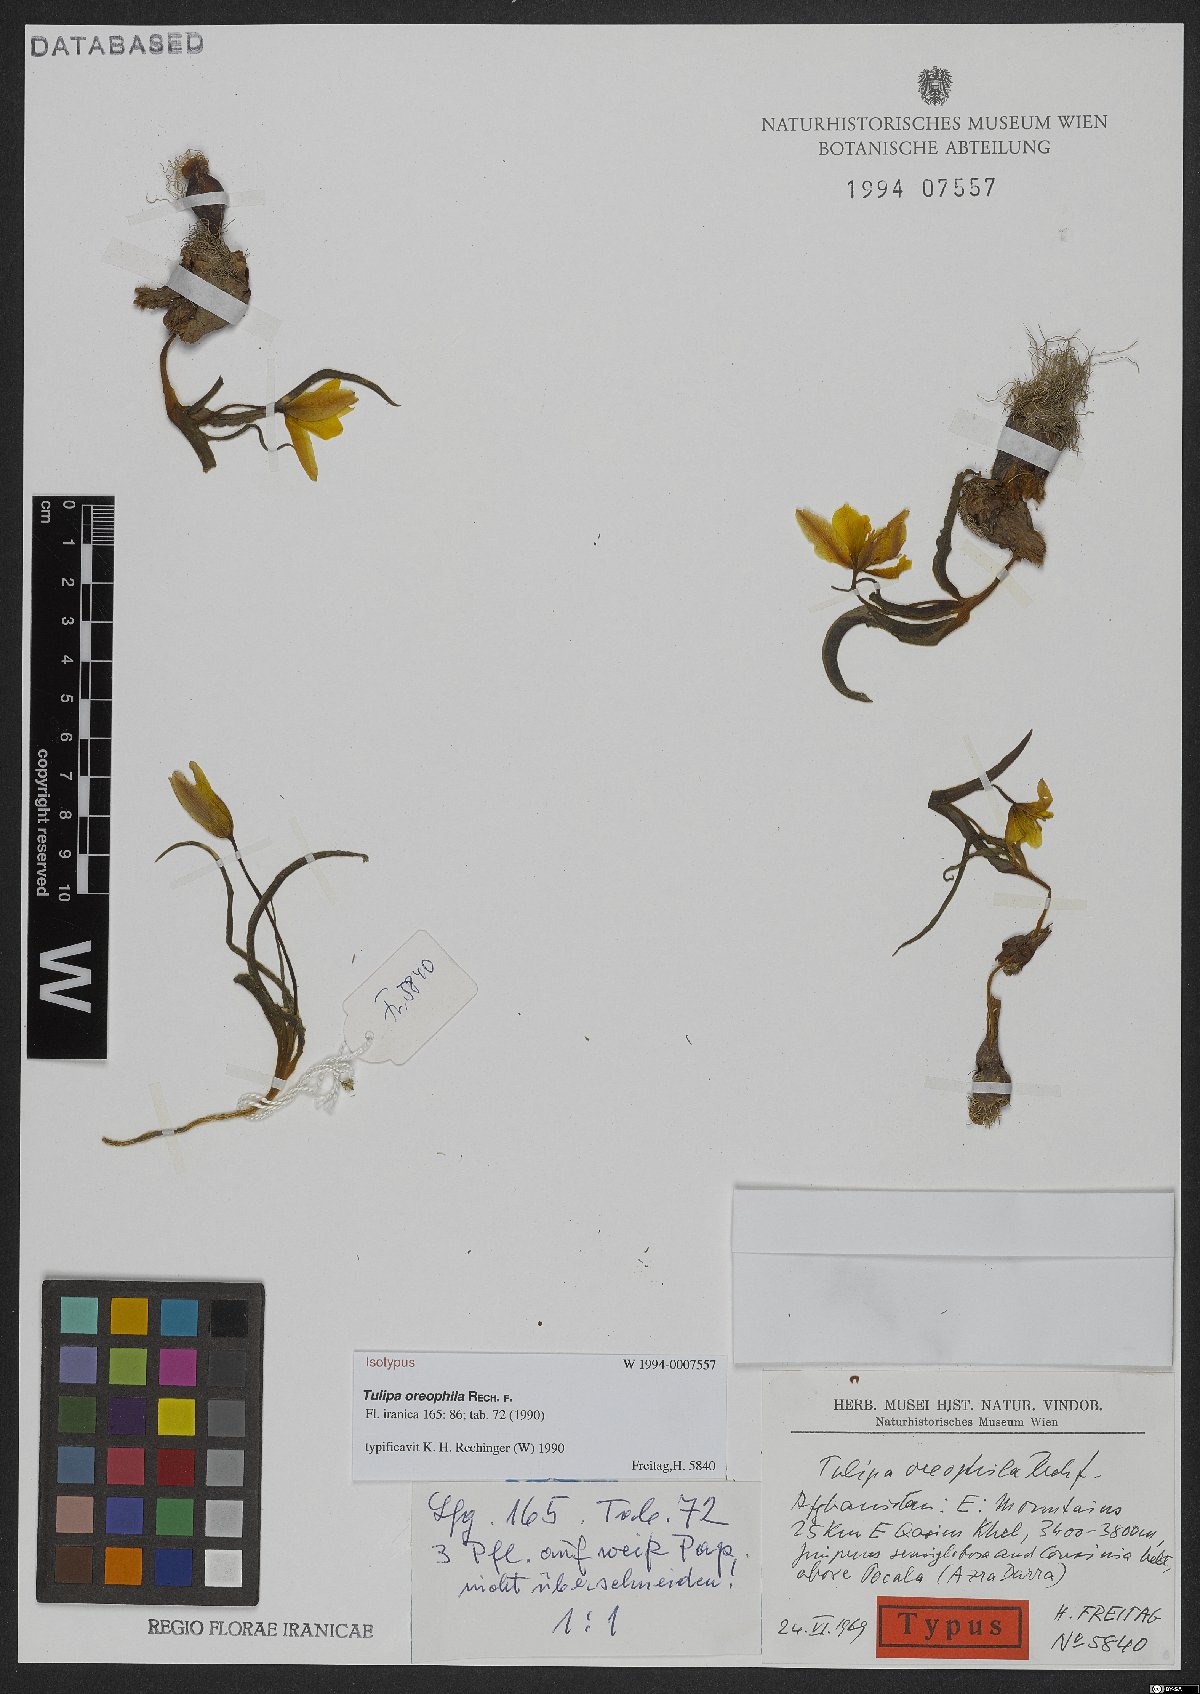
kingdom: Plantae
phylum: Tracheophyta
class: Liliopsida
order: Liliales
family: Liliaceae
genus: Tulipa
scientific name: Tulipa clusiana
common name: Lady tulip
